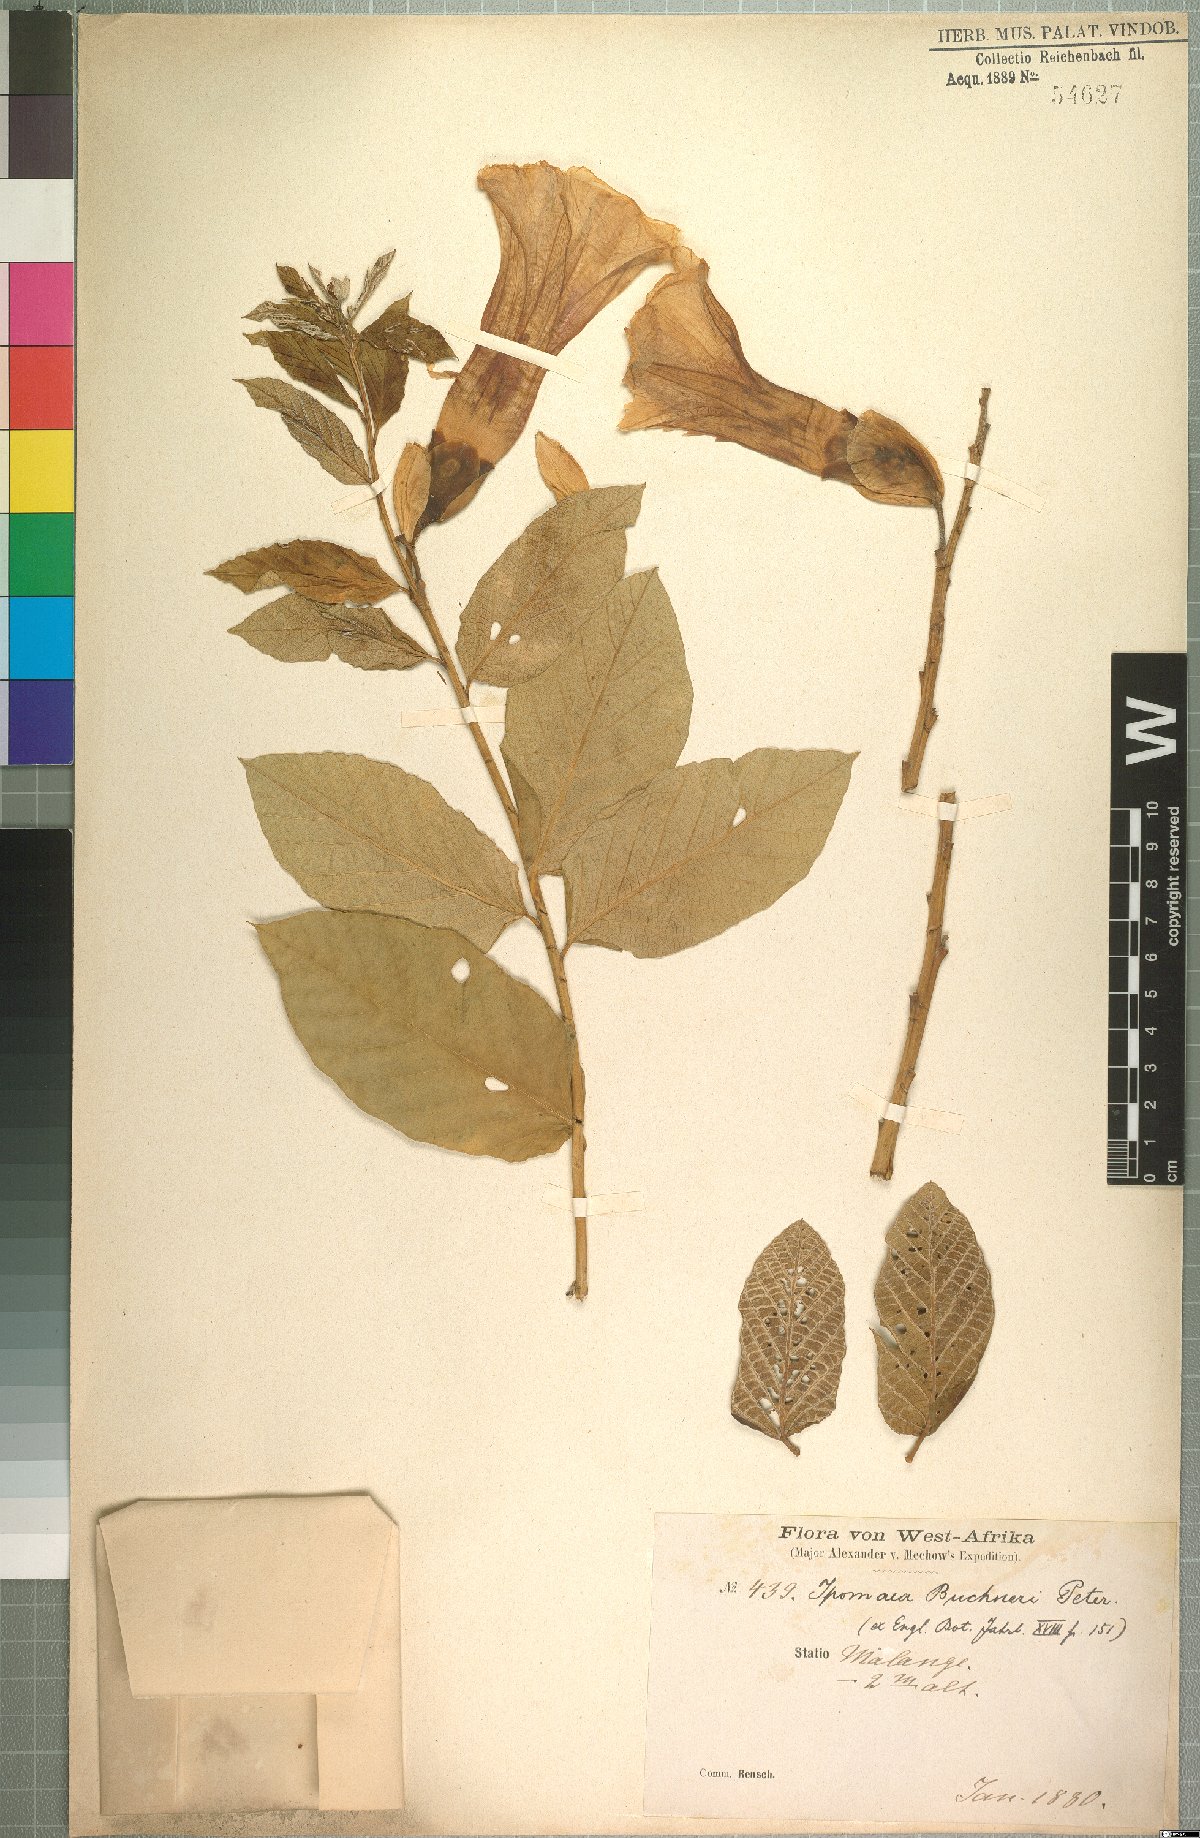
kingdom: Plantae
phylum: Tracheophyta
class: Magnoliopsida
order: Solanales
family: Convolvulaceae
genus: Ipomoea
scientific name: Ipomoea prismatosyphon
